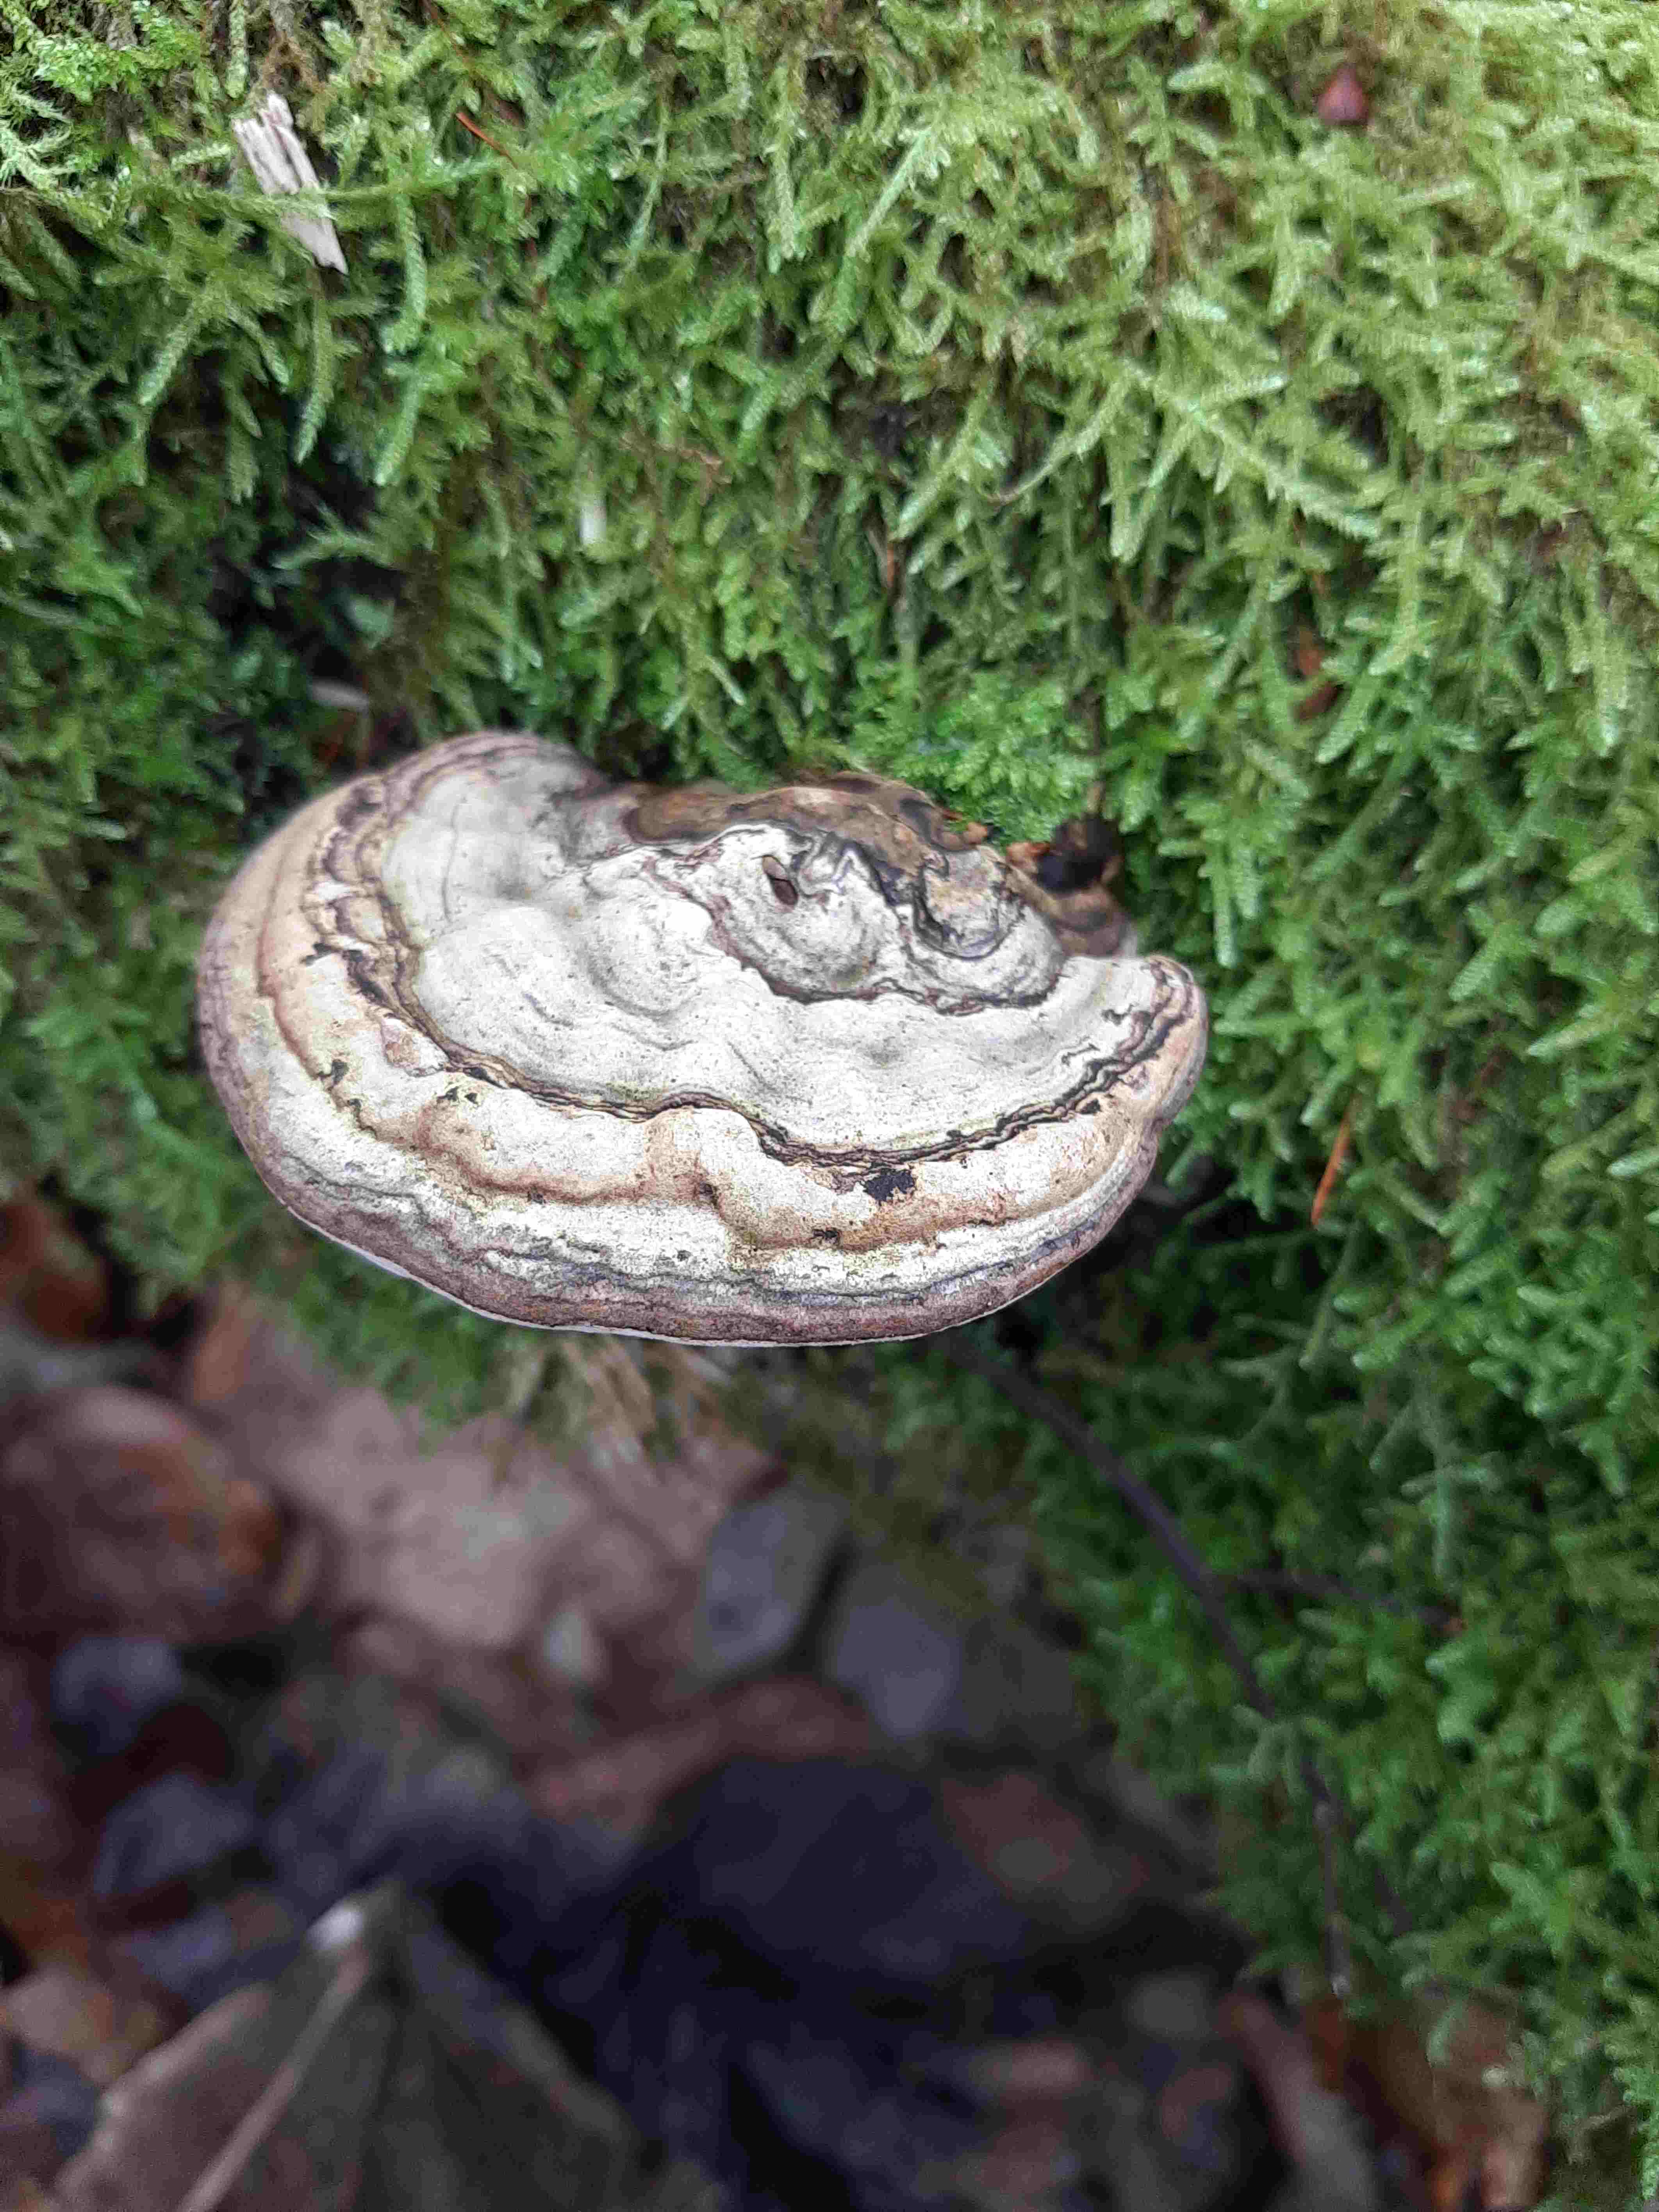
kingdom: Fungi
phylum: Basidiomycota
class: Agaricomycetes
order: Polyporales
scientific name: Polyporales
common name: poresvampordenen
